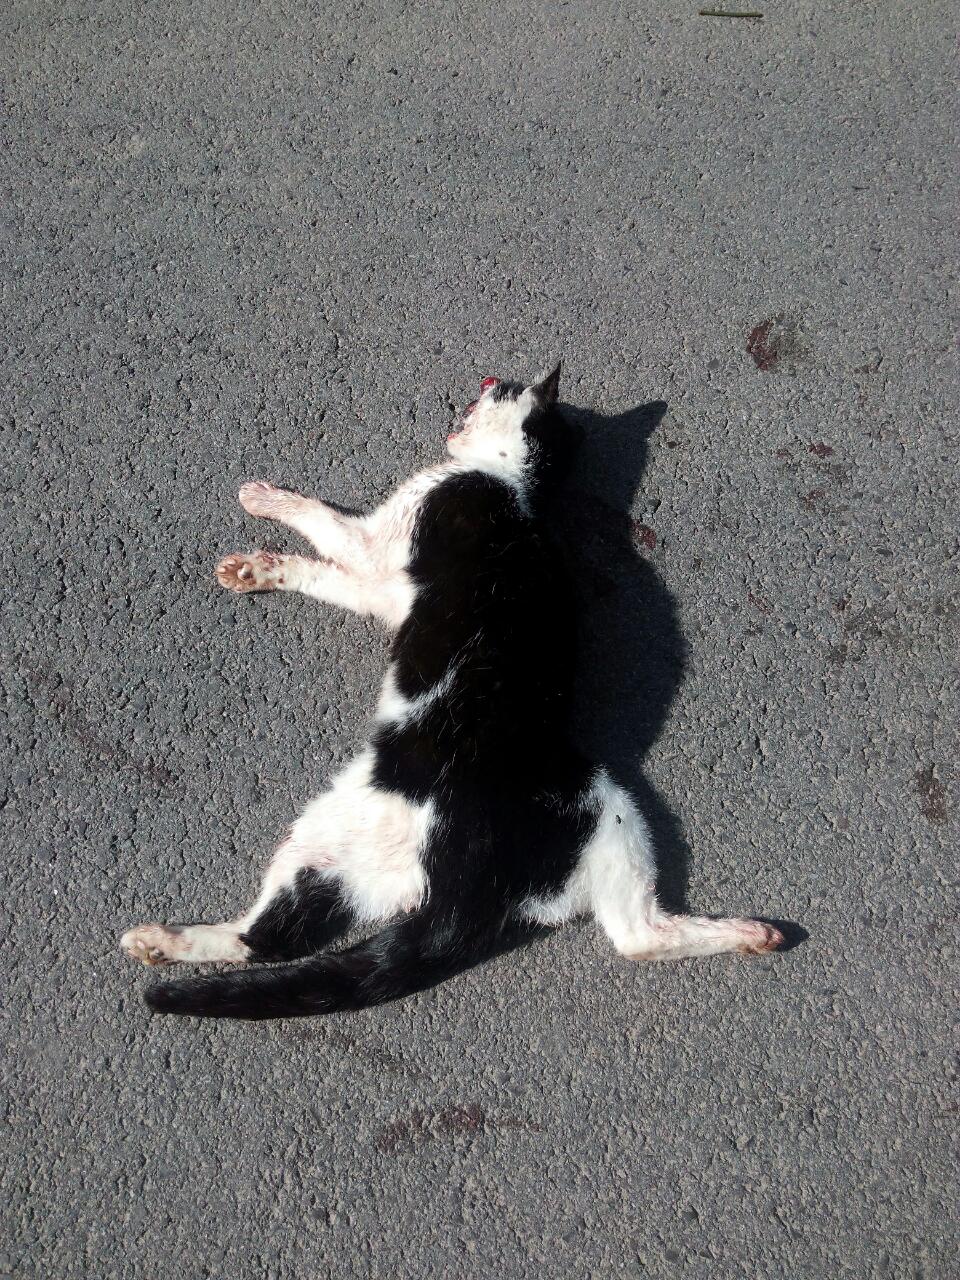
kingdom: Animalia
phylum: Chordata
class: Mammalia
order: Carnivora
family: Felidae
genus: Felis
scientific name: Felis catus
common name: Domestic cat
